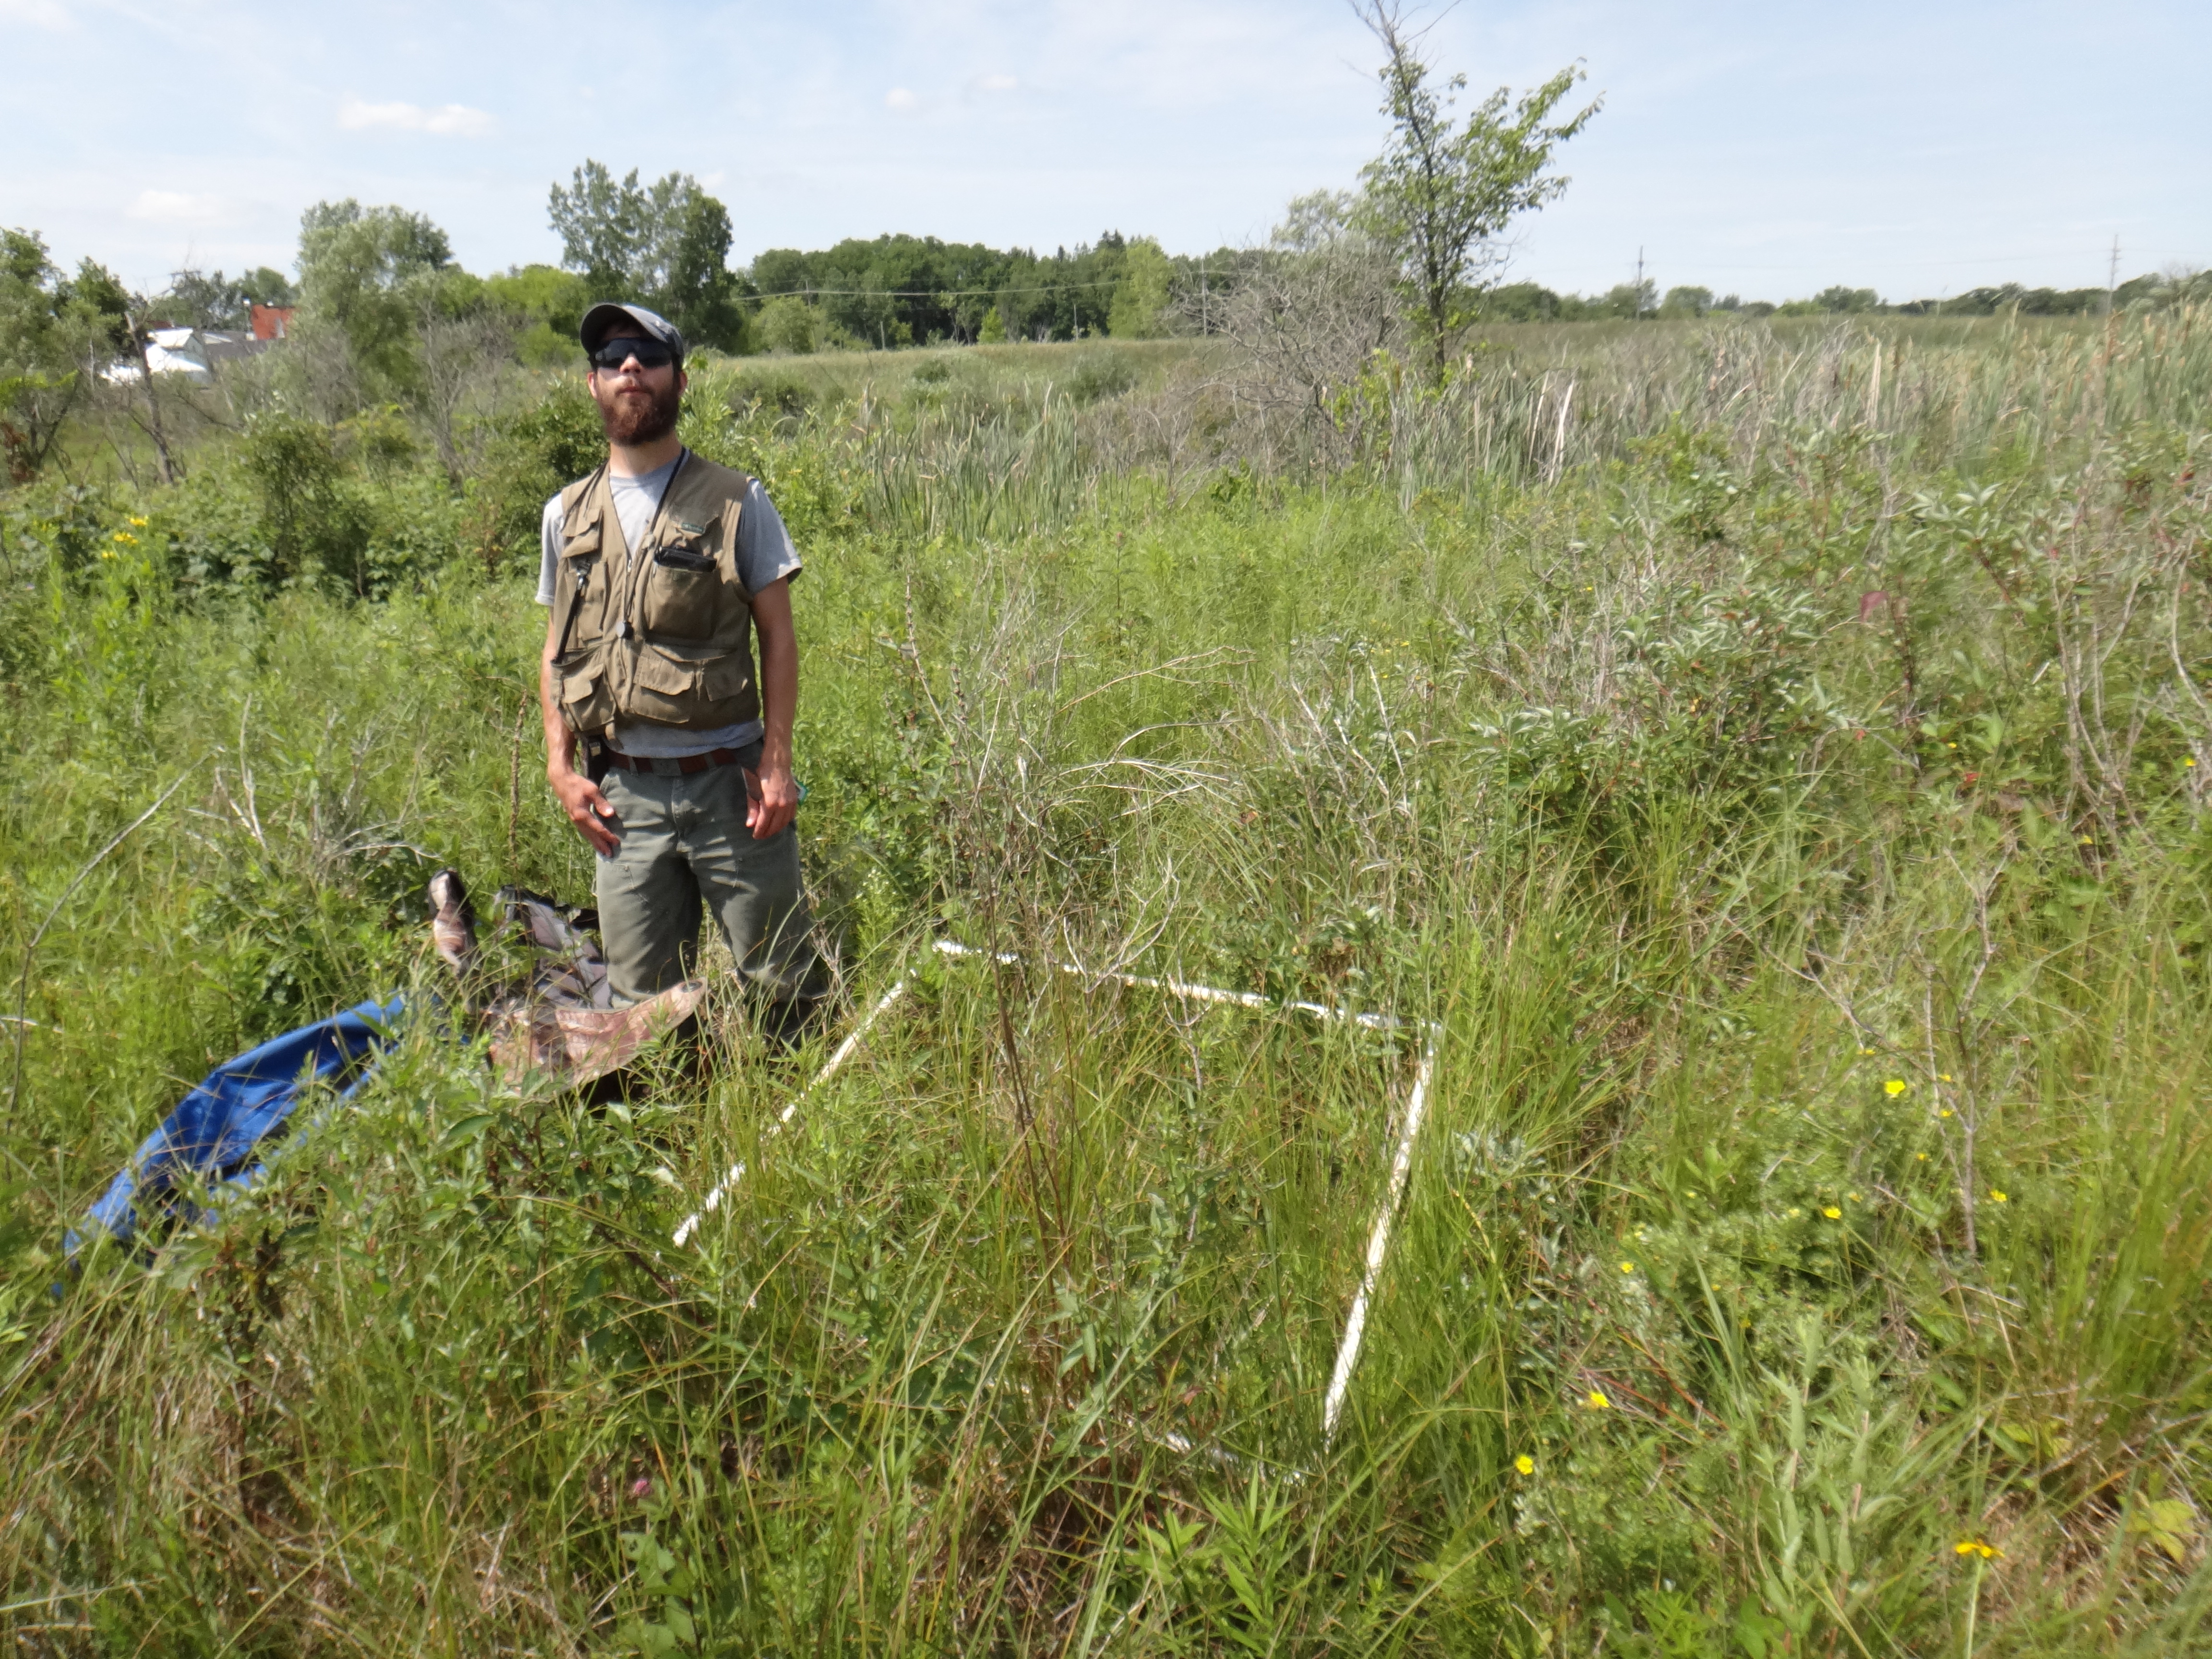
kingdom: Plantae
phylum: Tracheophyta
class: Magnoliopsida
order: Cornales
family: Cornaceae
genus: Cornus
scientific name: Cornus sericea
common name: Red-osier dogwood
